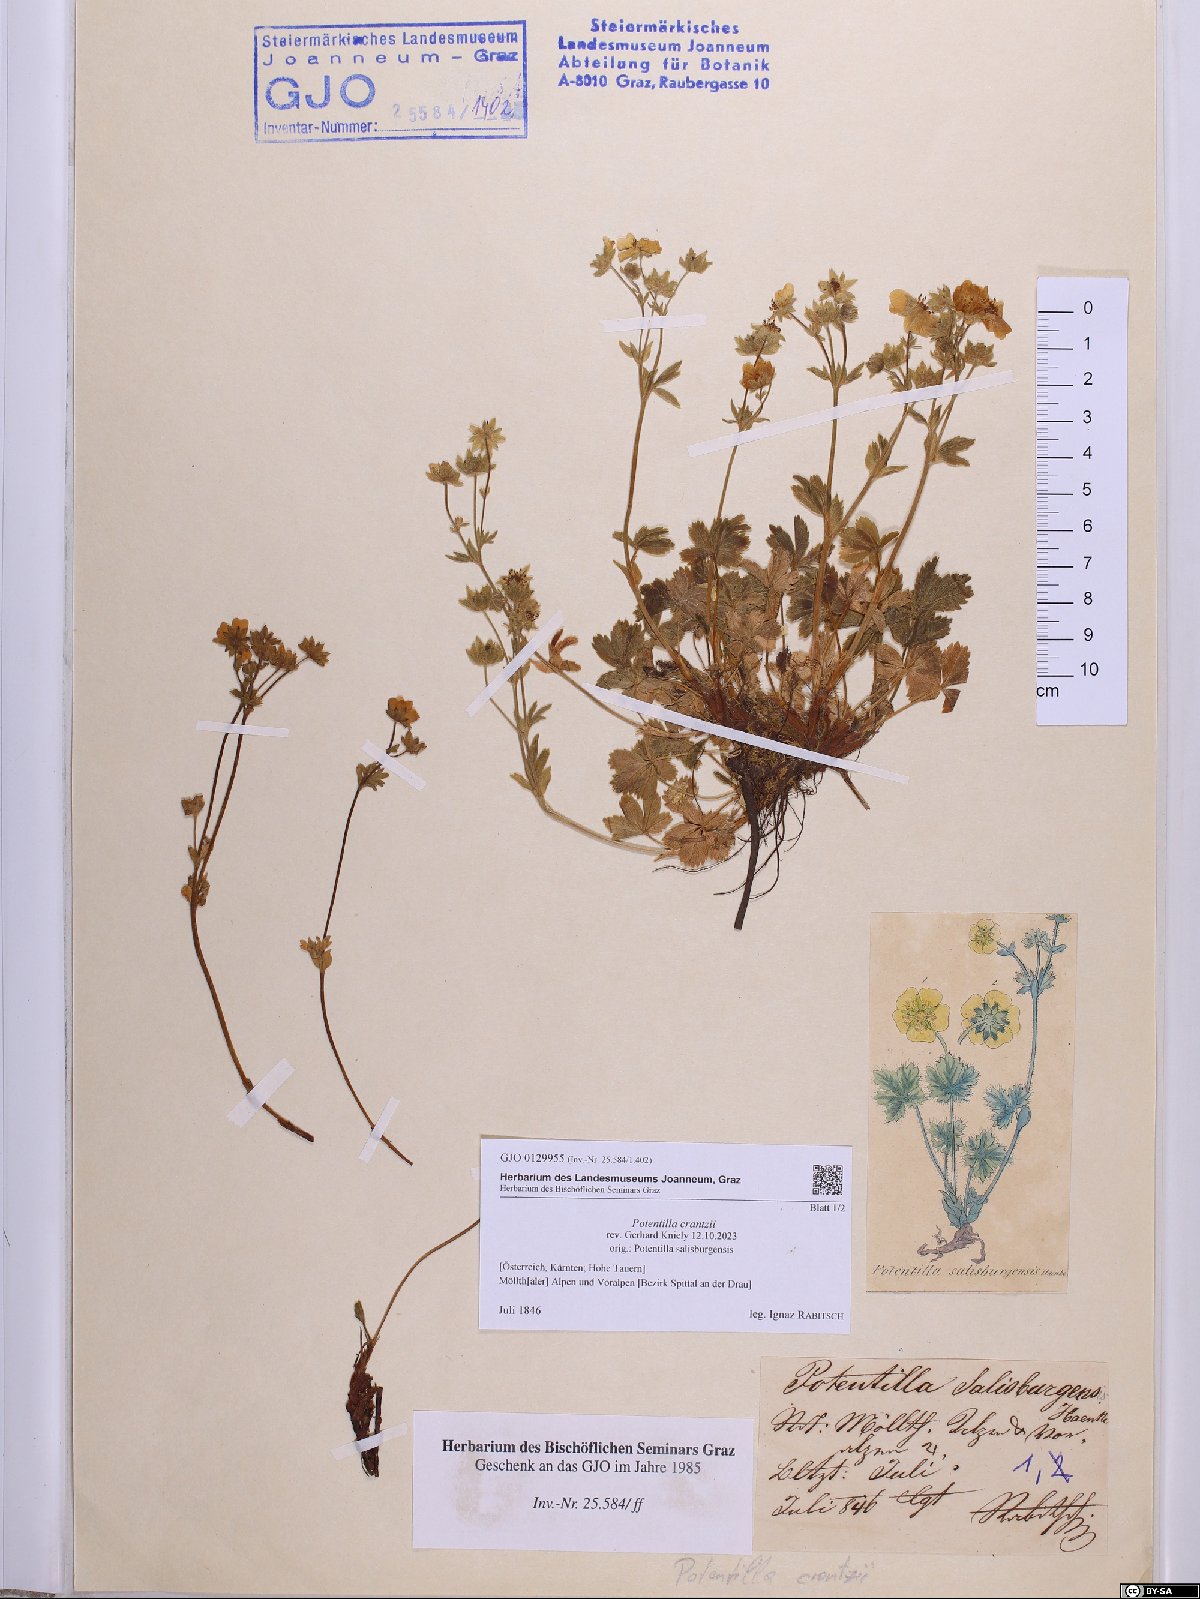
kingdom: Plantae
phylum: Tracheophyta
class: Magnoliopsida
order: Rosales
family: Rosaceae
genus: Potentilla
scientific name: Potentilla crantzii
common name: Alpine cinquefoil
